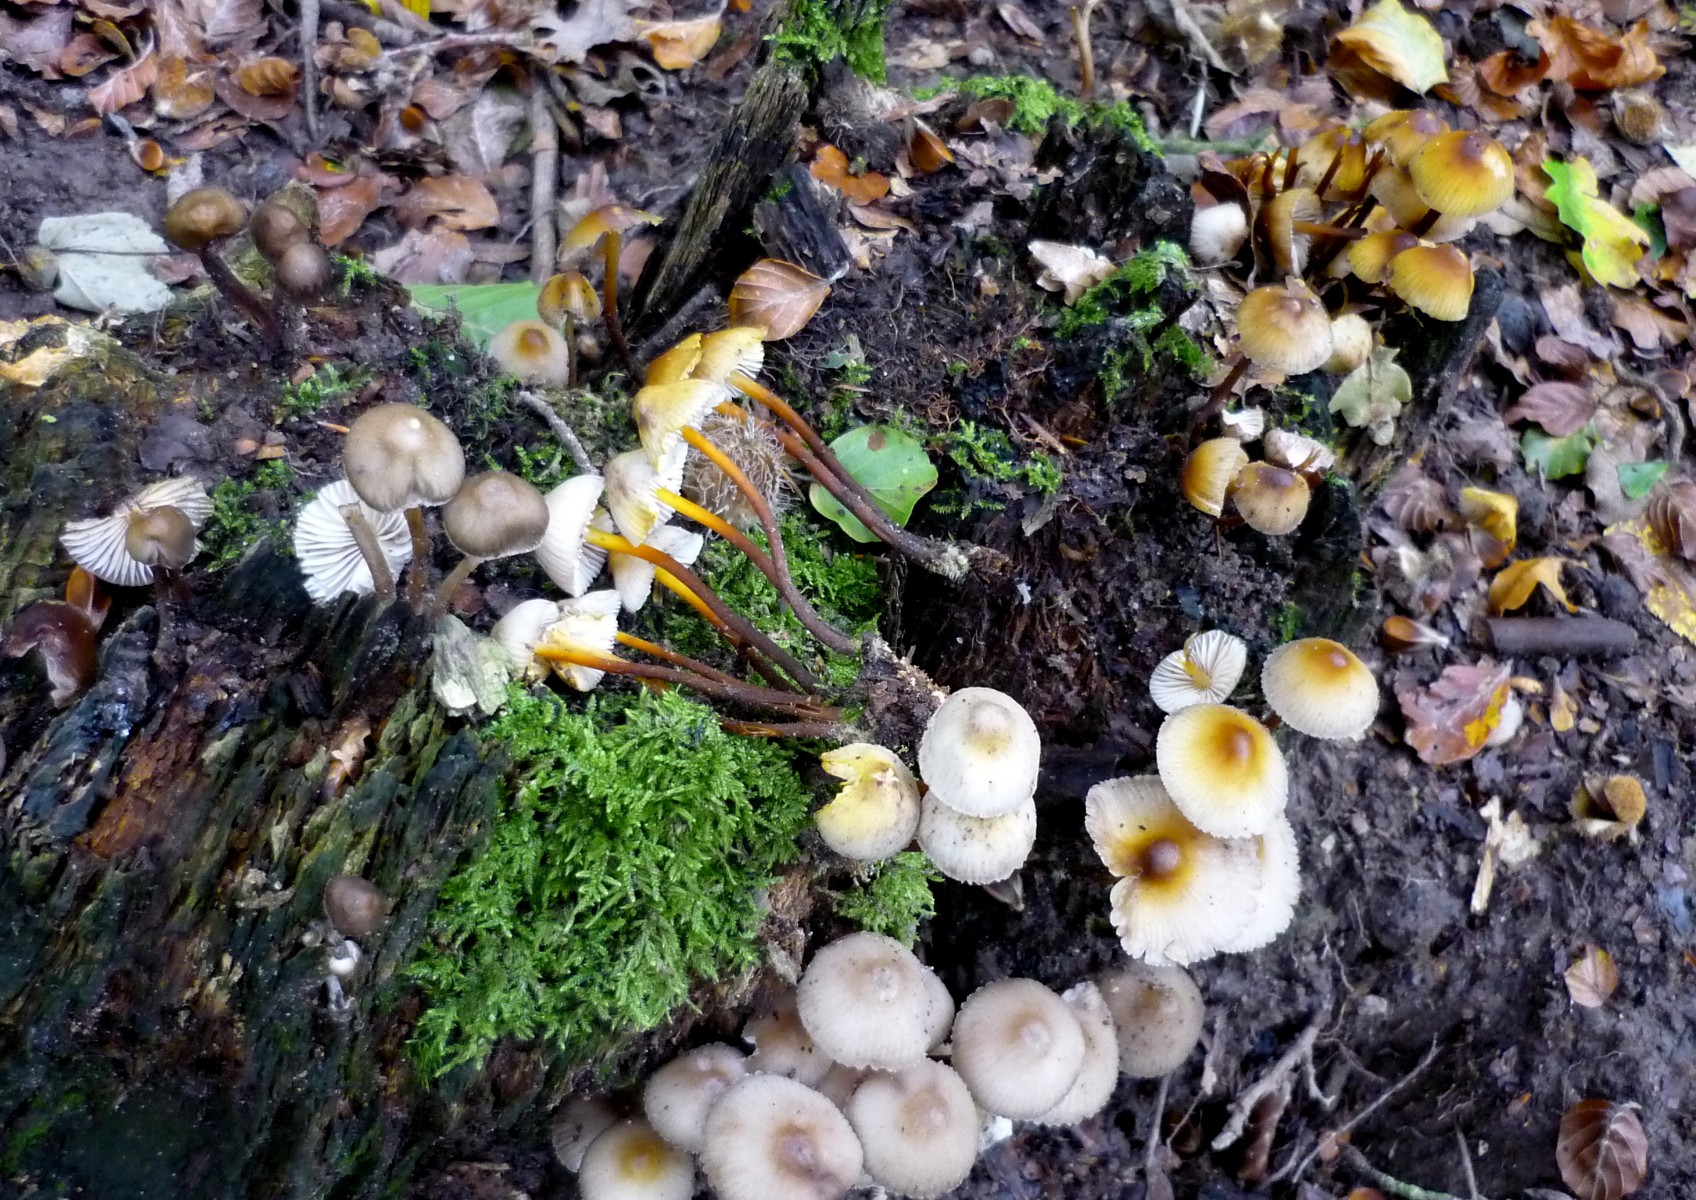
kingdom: Fungi
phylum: Basidiomycota
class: Agaricomycetes
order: Agaricales
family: Mycenaceae
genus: Mycena
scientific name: Mycena inclinata
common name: nikkende huesvamp
